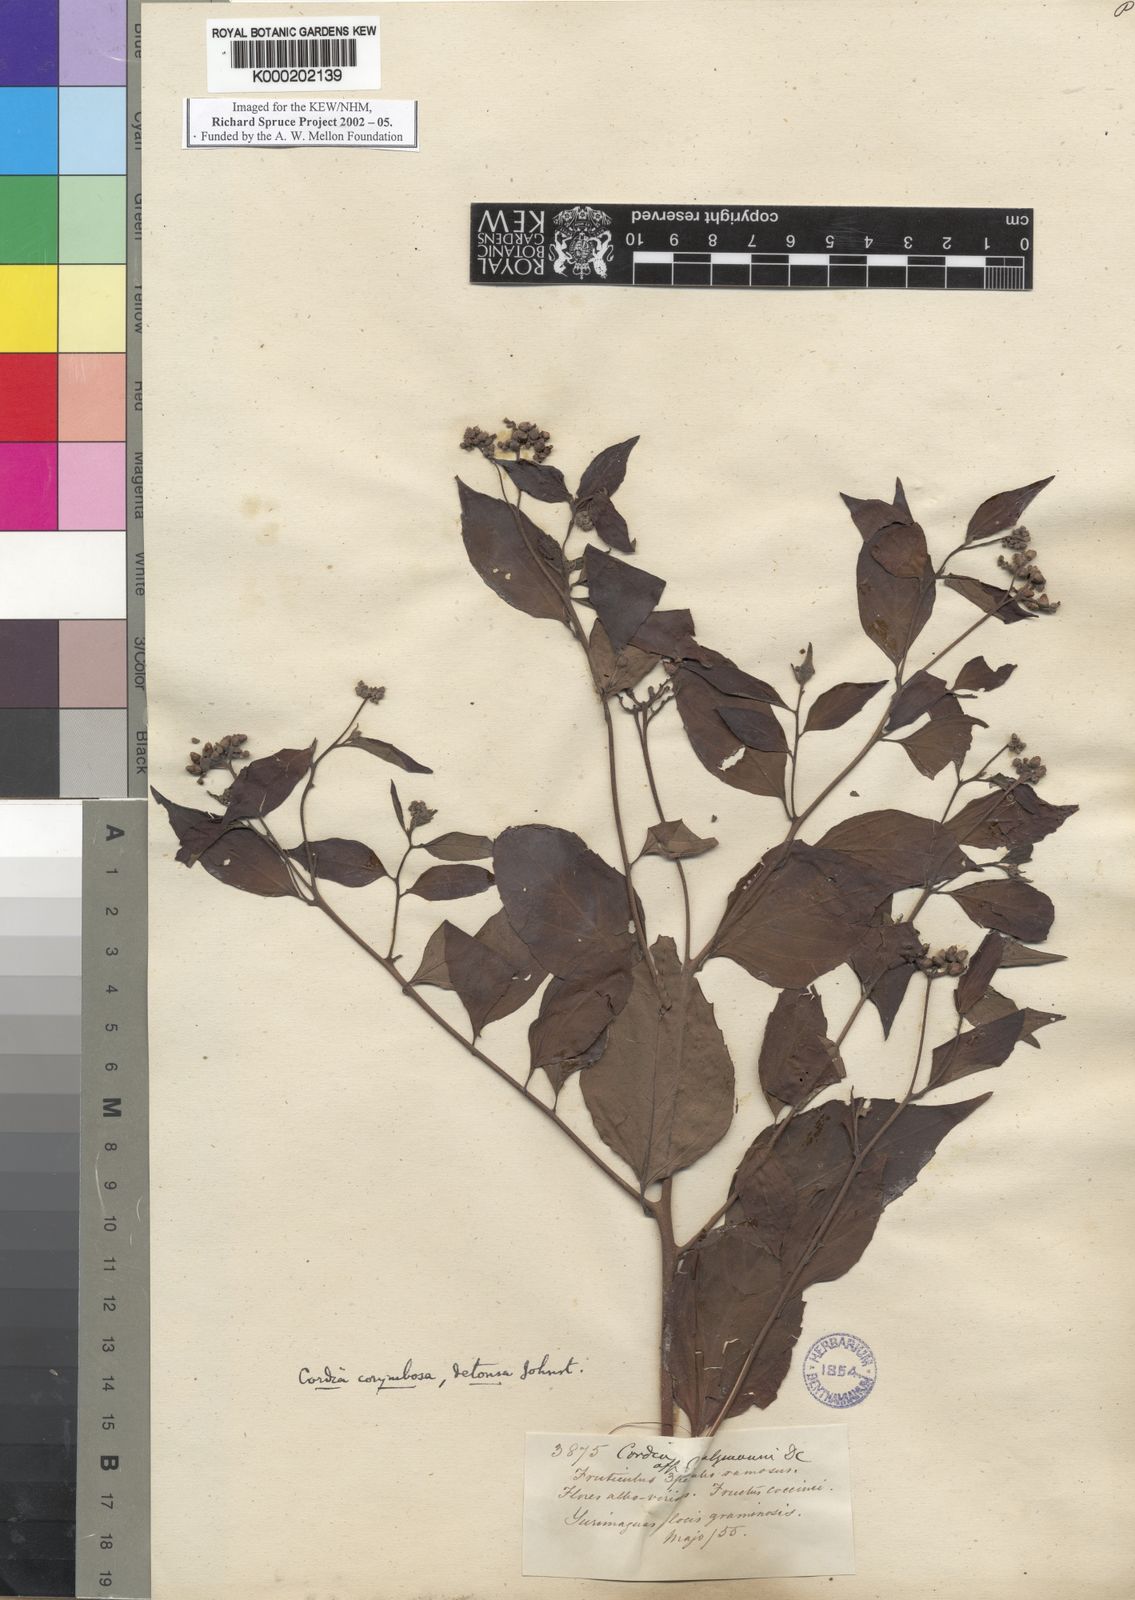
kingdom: Plantae
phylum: Tracheophyta
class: Magnoliopsida
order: Boraginales
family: Cordiaceae
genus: Varronia
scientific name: Varronia dichotoma
